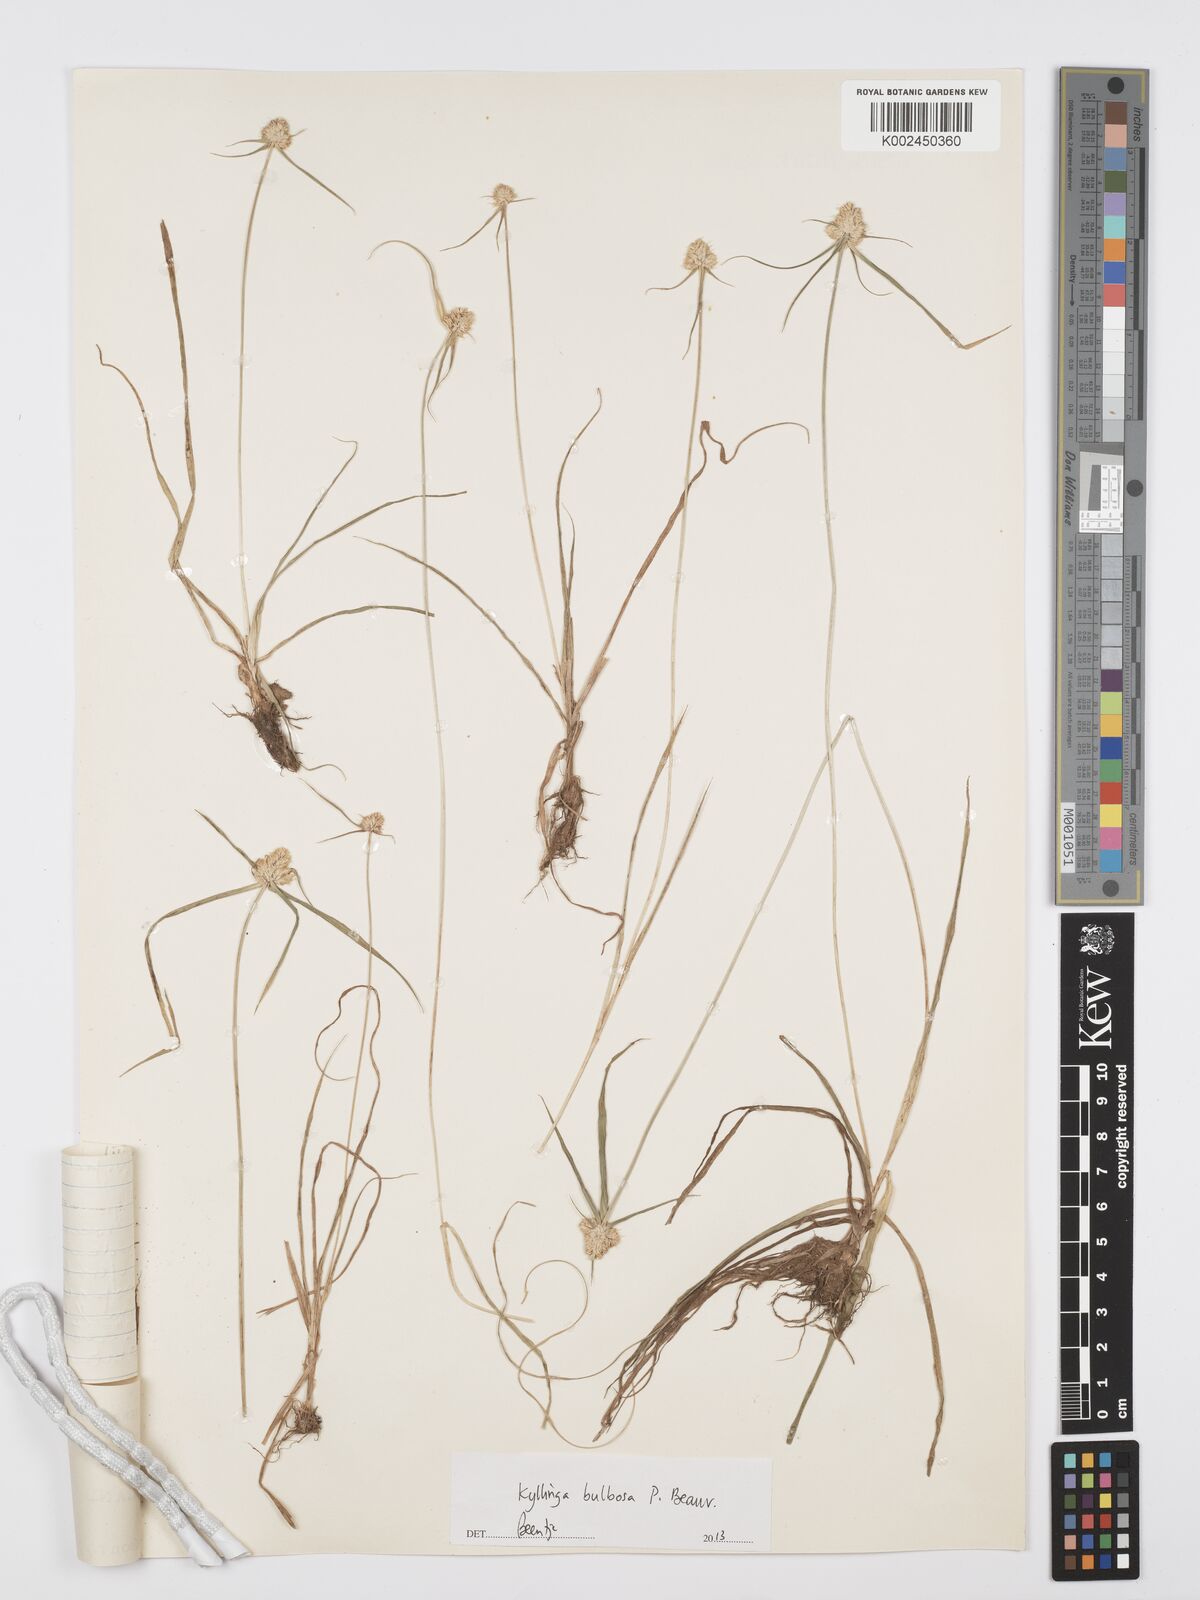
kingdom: Plantae
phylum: Tracheophyta
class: Liliopsida
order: Poales
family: Cyperaceae
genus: Cyperus
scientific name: Cyperus
